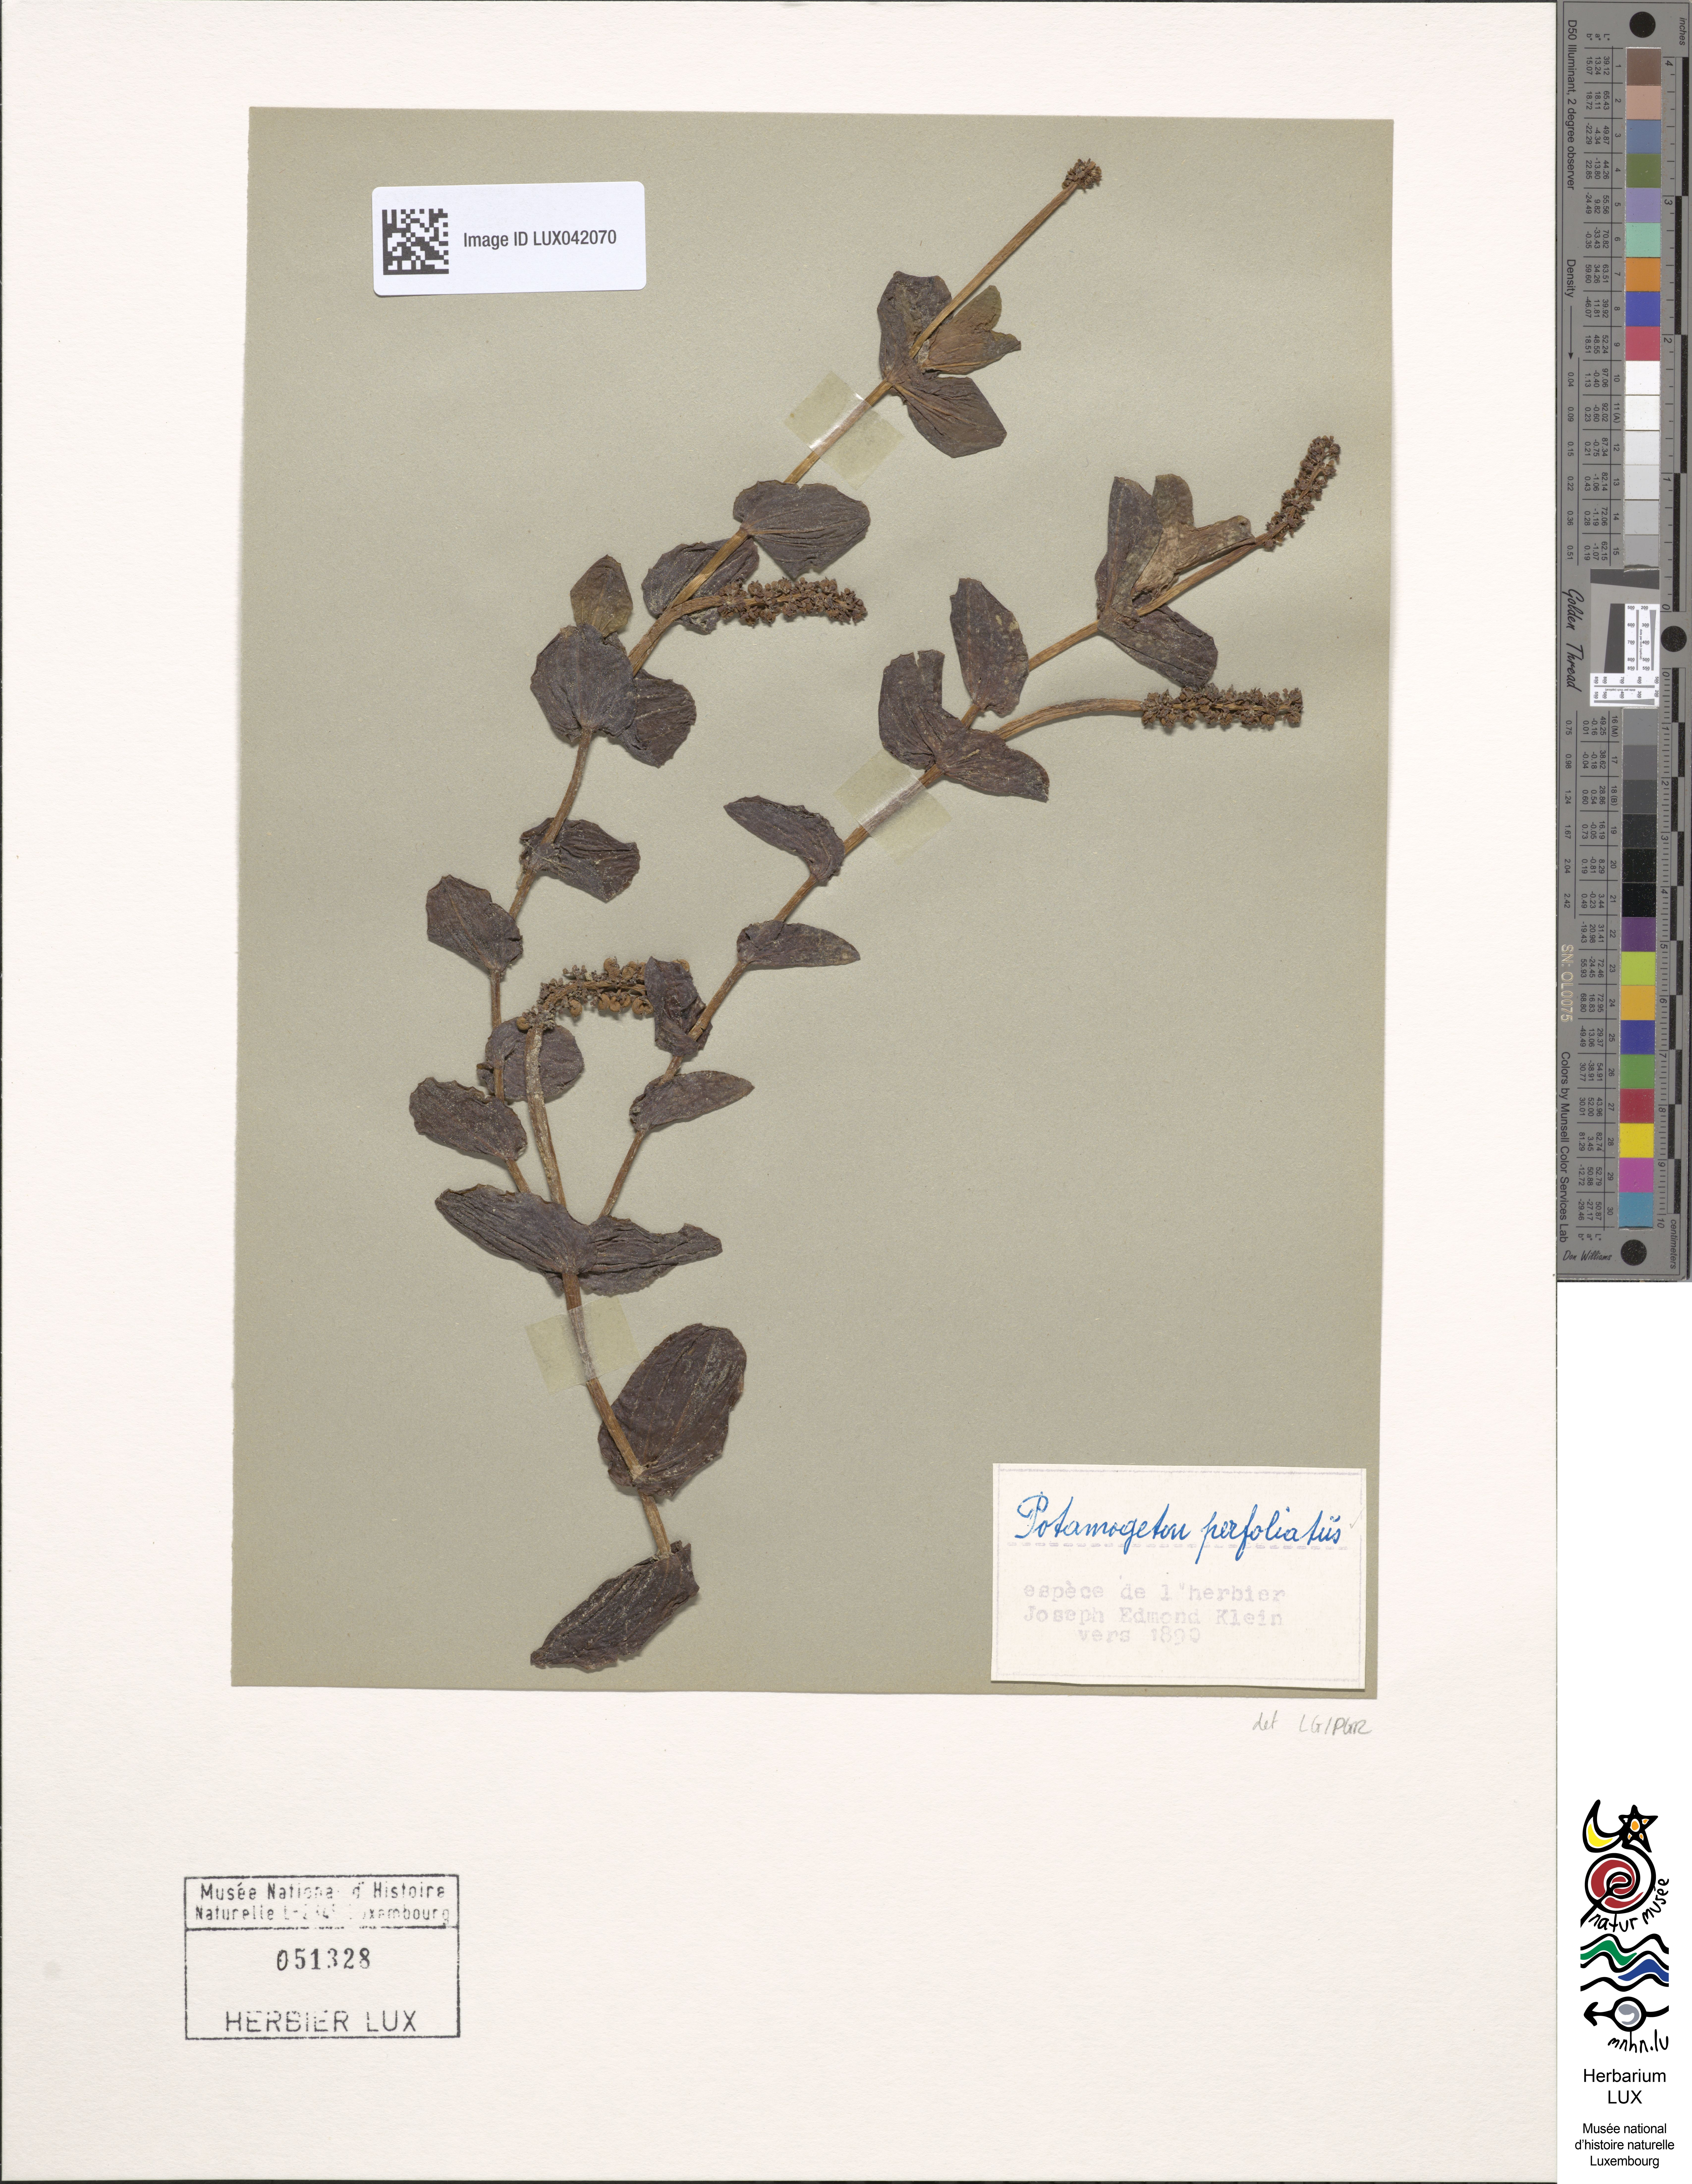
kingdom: Plantae
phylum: Tracheophyta
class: Liliopsida
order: Alismatales
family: Potamogetonaceae
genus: Potamogeton
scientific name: Potamogeton perfoliatus
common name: Perfoliate pondweed
